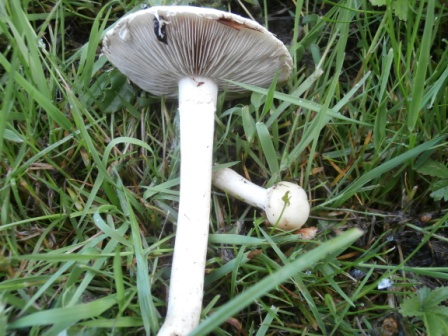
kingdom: Fungi
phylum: Basidiomycota
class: Agaricomycetes
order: Agaricales
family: Strophariaceae
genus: Agrocybe
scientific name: Agrocybe dura
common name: fastkødet agerhat
